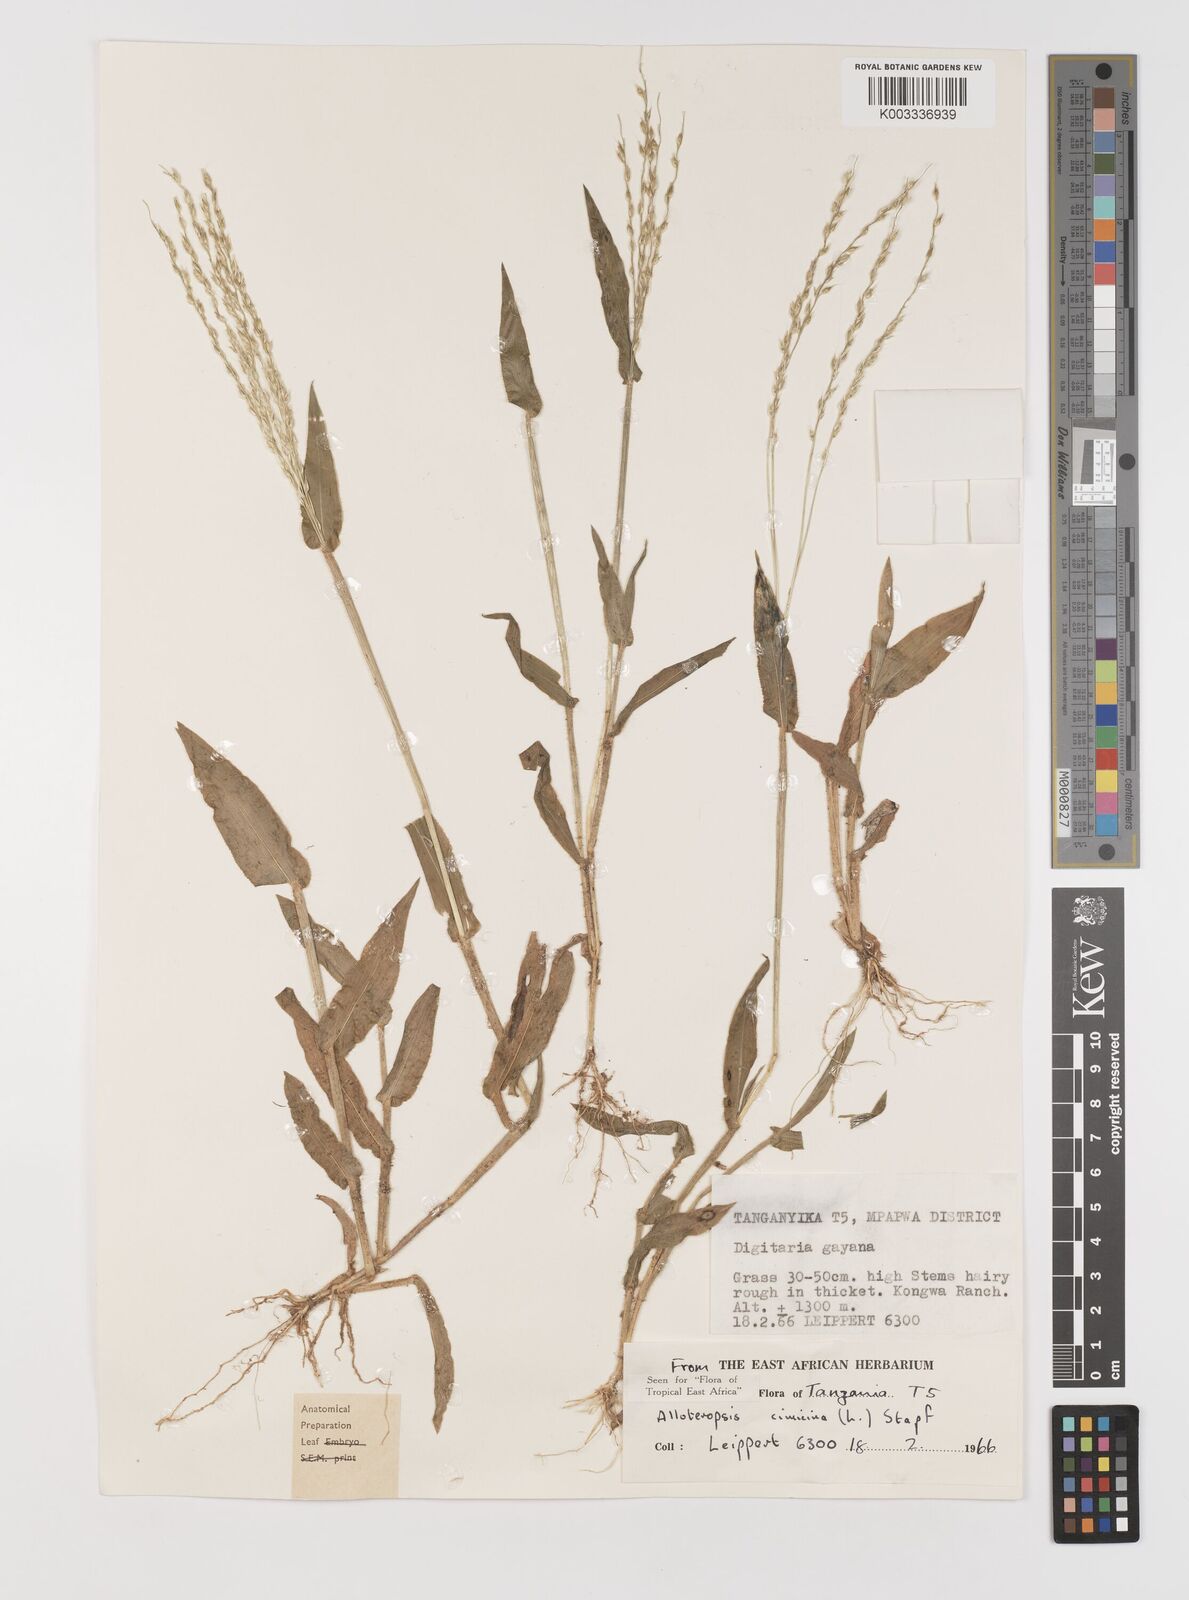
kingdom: Plantae
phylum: Tracheophyta
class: Liliopsida
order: Poales
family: Poaceae
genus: Alloteropsis
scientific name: Alloteropsis cimicina
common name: Summergrass
